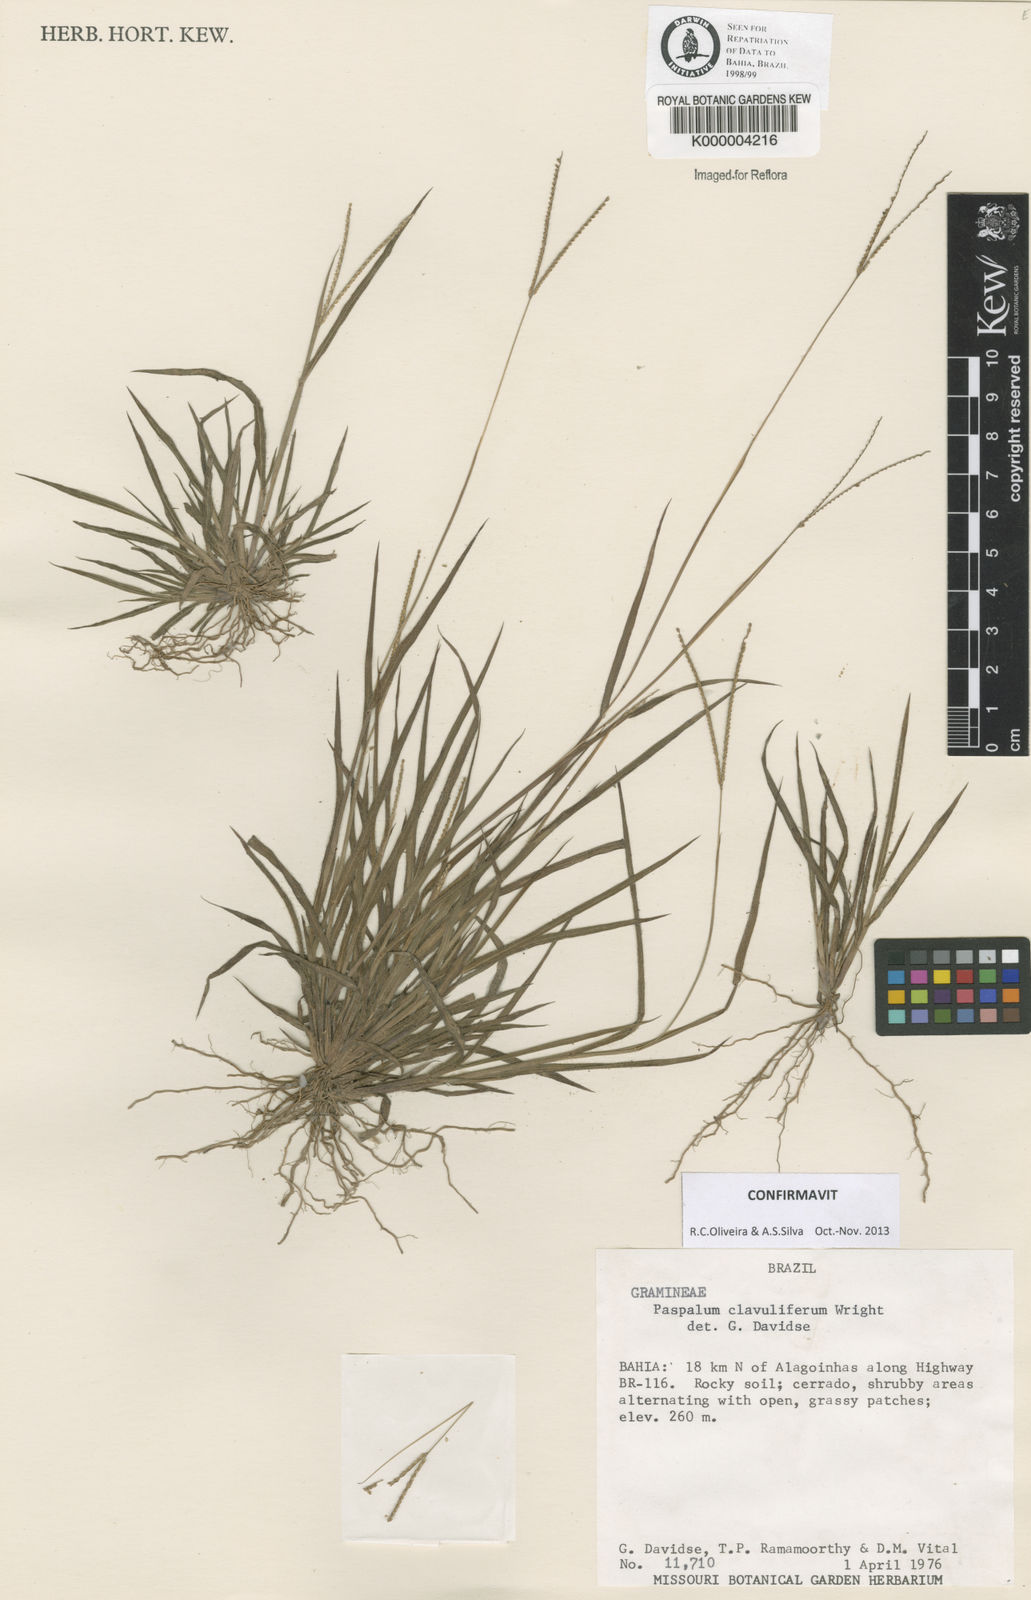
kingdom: Plantae
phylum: Tracheophyta
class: Liliopsida
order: Poales
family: Poaceae
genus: Paspalum
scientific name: Paspalum clavuliferum
